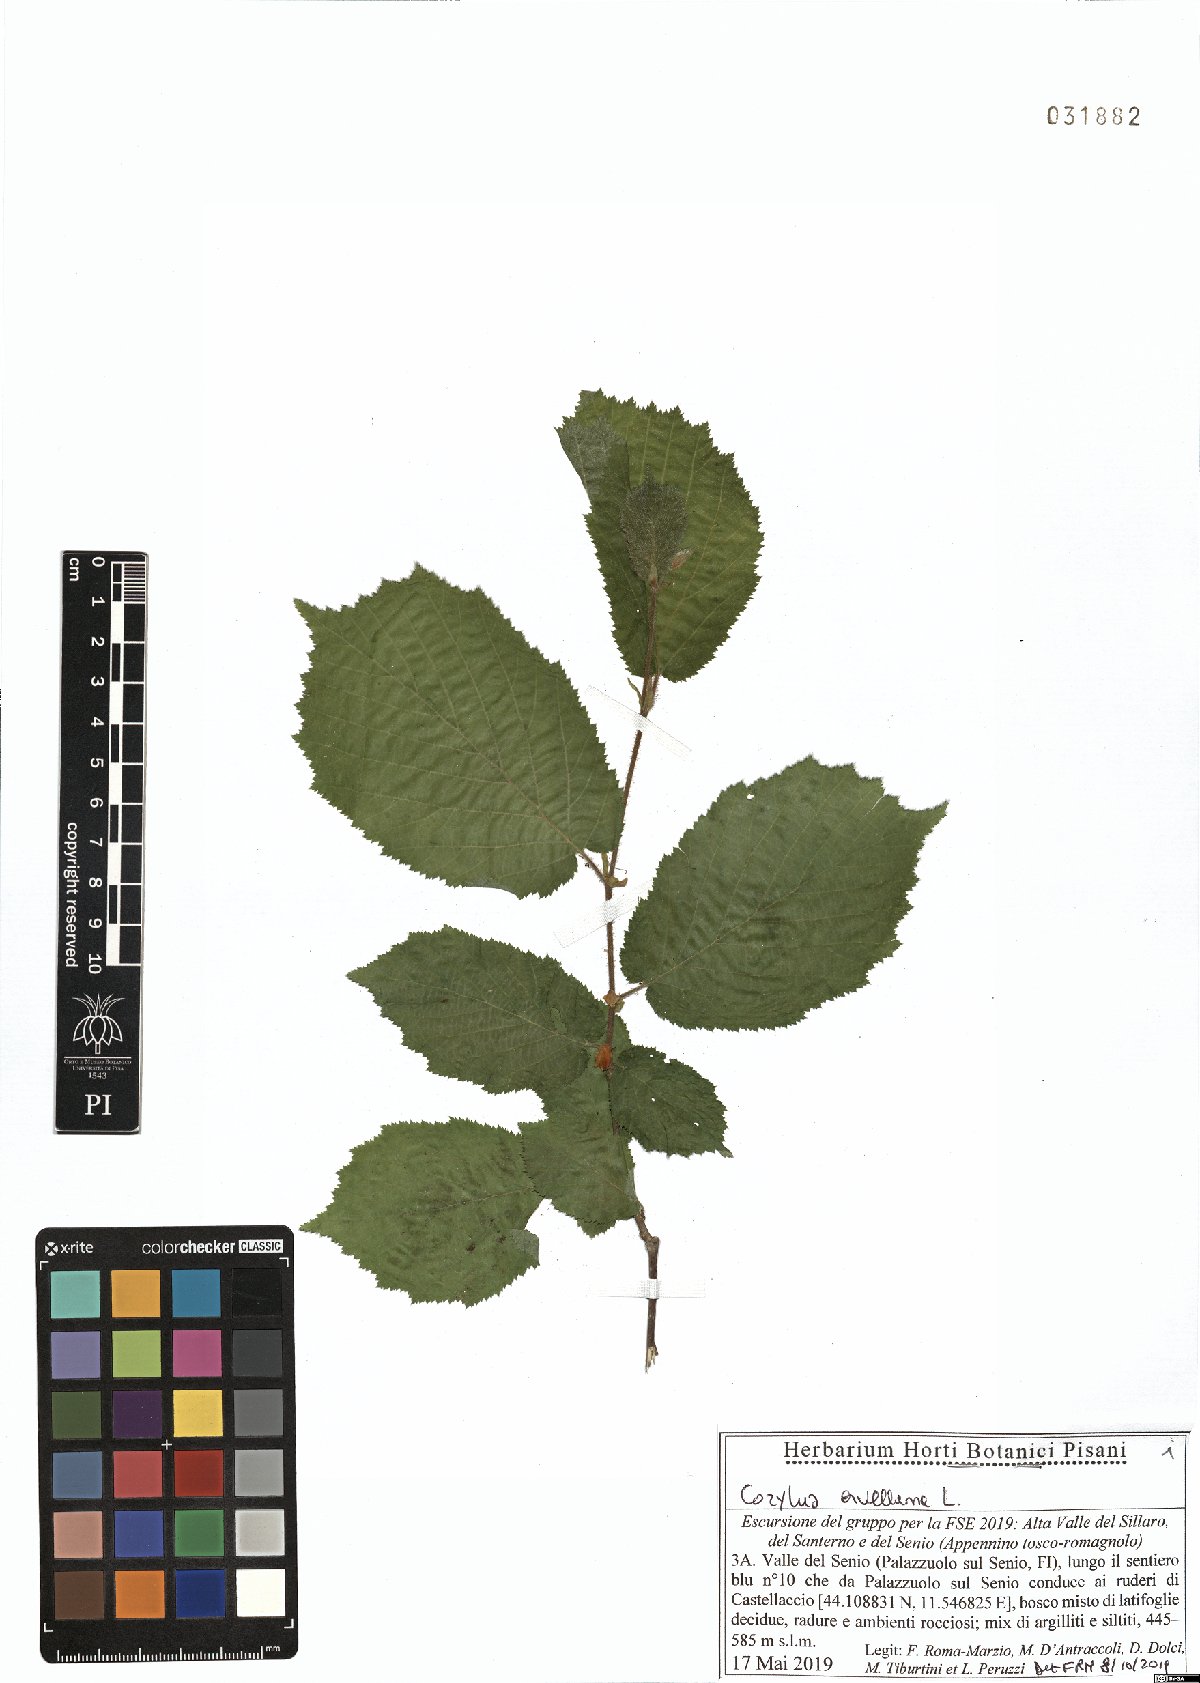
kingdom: Plantae
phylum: Tracheophyta
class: Magnoliopsida
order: Fagales
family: Betulaceae
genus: Corylus
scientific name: Corylus avellana
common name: European hazel
